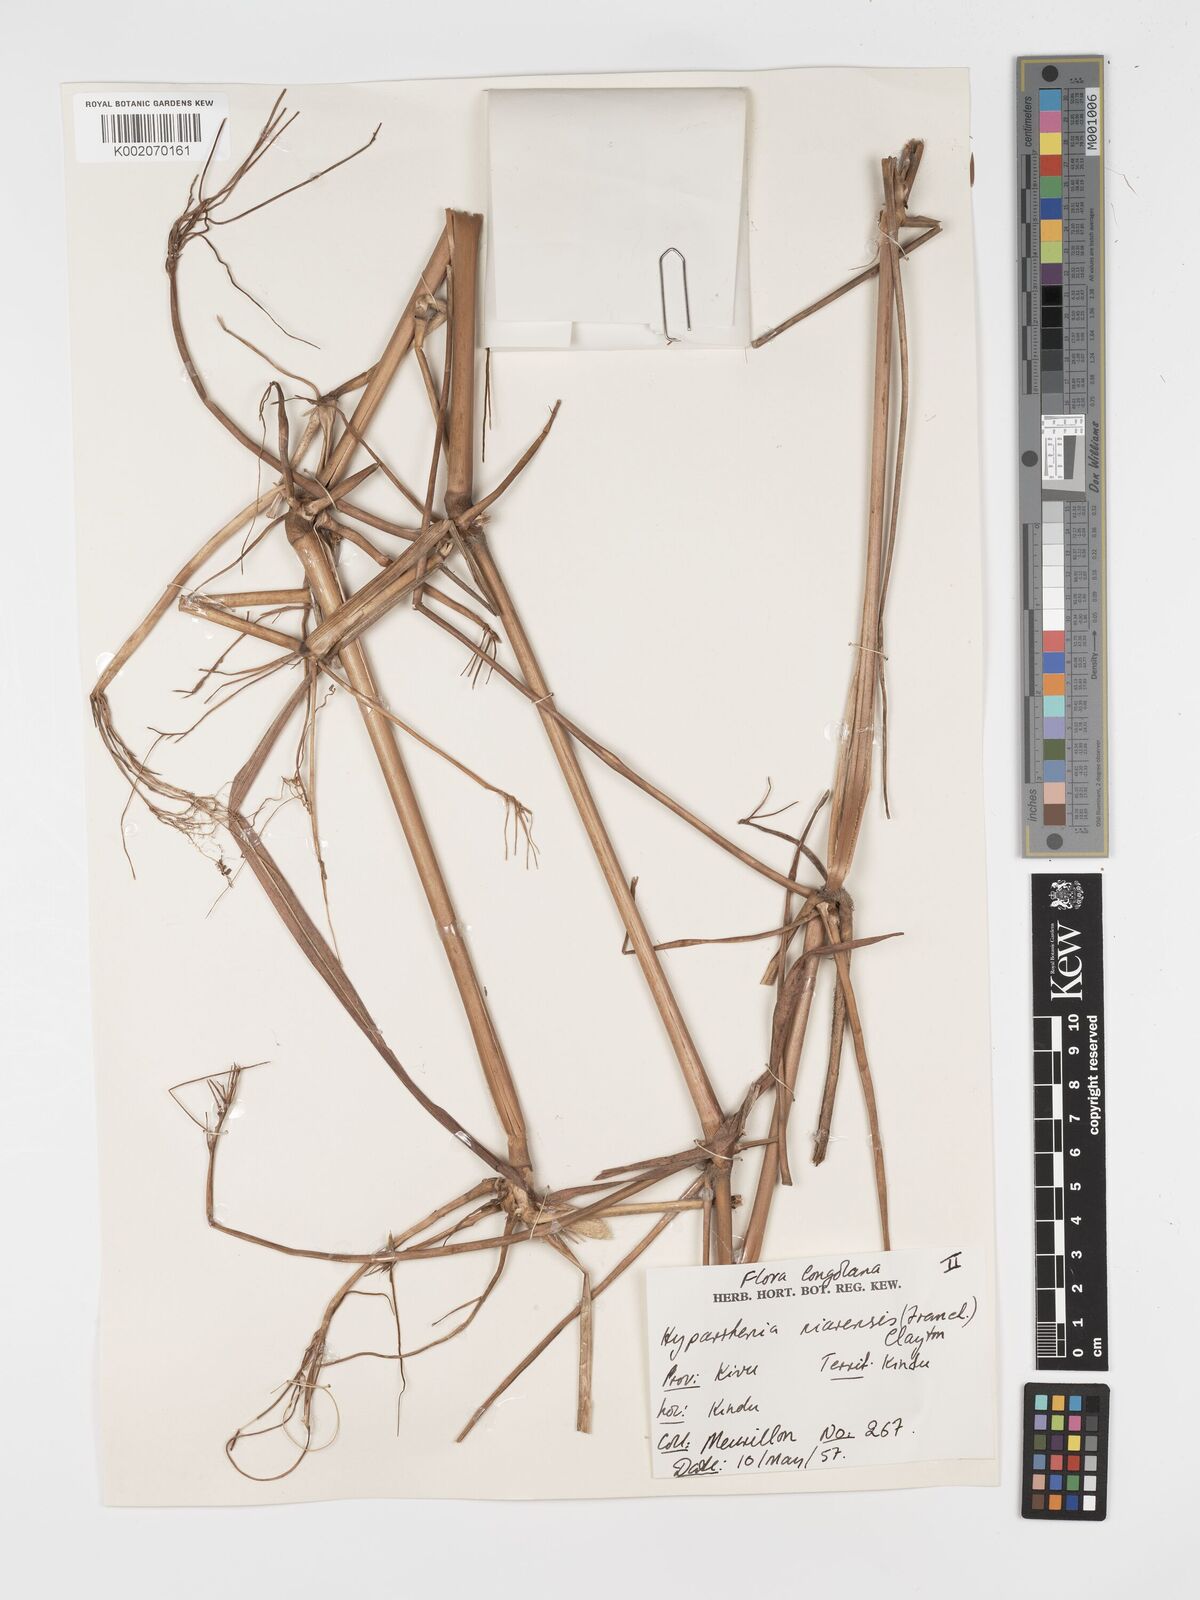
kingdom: Plantae
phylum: Tracheophyta
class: Liliopsida
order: Poales
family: Poaceae
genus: Hyparrhenia
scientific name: Hyparrhenia niariensis
